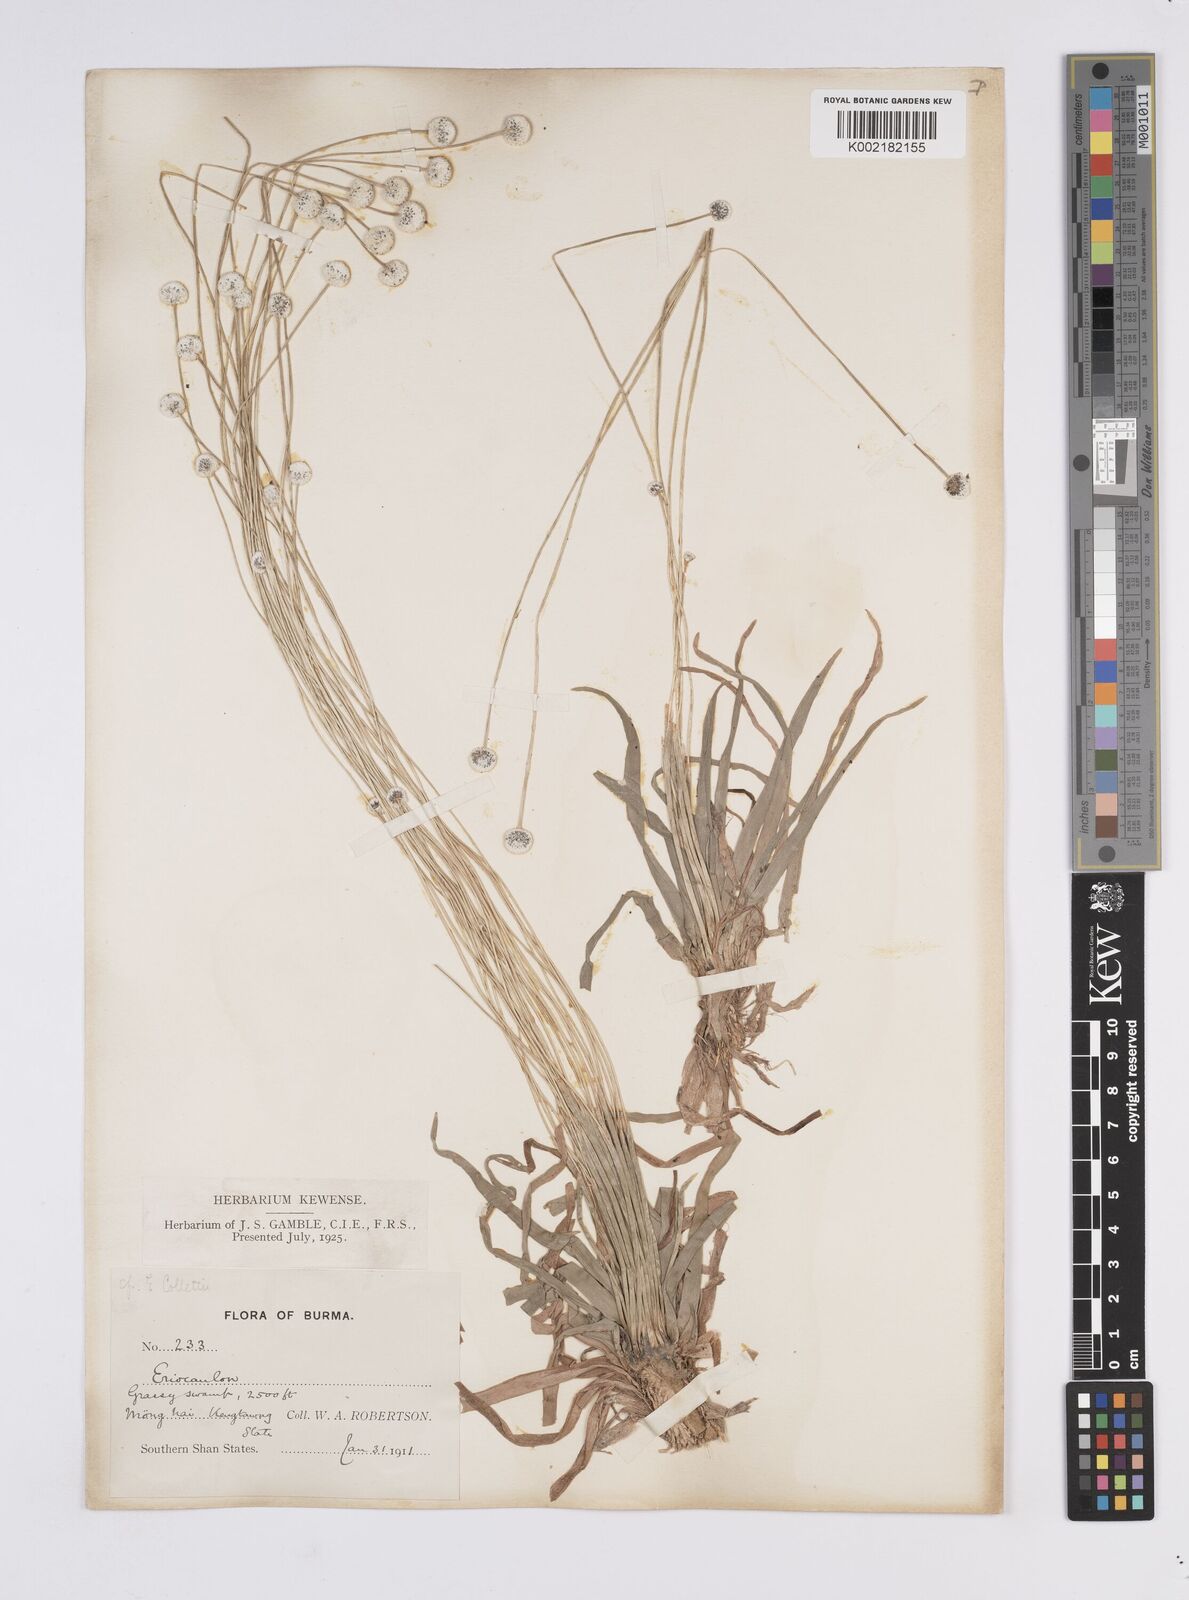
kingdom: Plantae
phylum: Tracheophyta
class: Liliopsida
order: Poales
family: Eriocaulaceae
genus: Eriocaulon
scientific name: Eriocaulon
